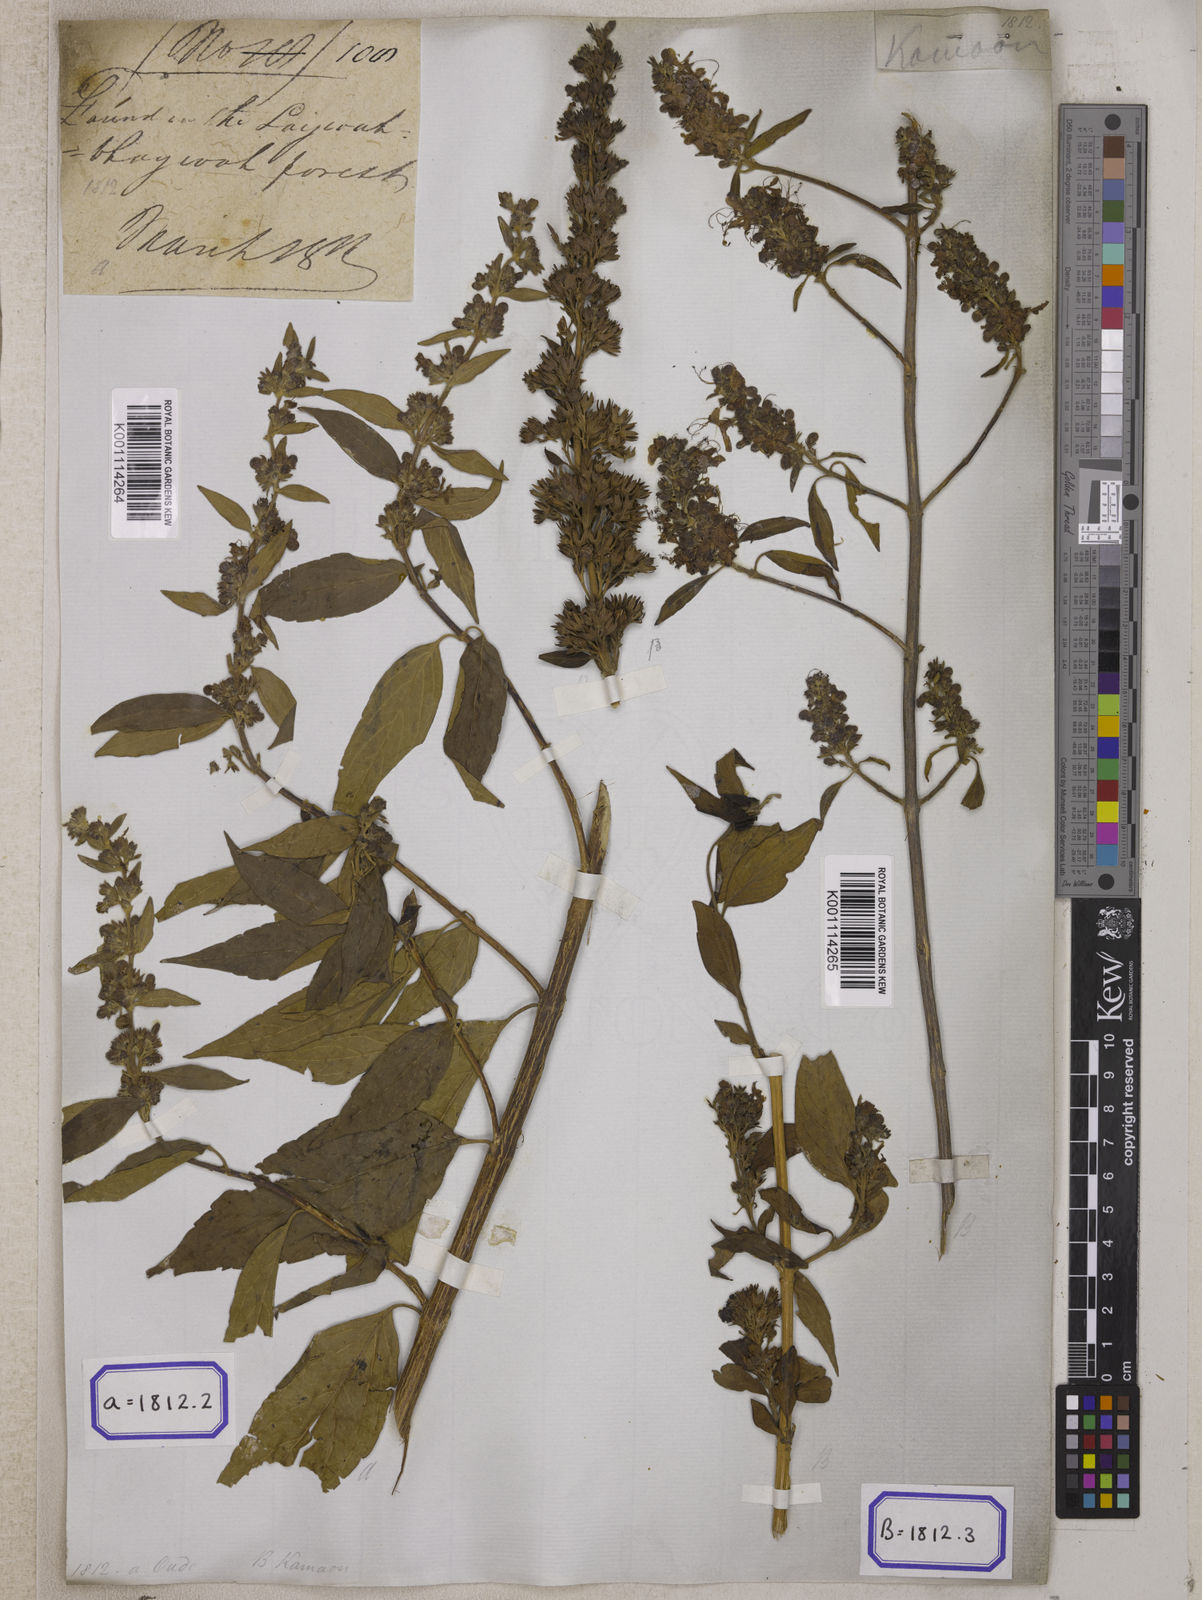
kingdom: Plantae
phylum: Tracheophyta
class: Magnoliopsida
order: Lamiales
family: Lamiaceae
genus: Clerodendrum
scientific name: Clerodendrum
